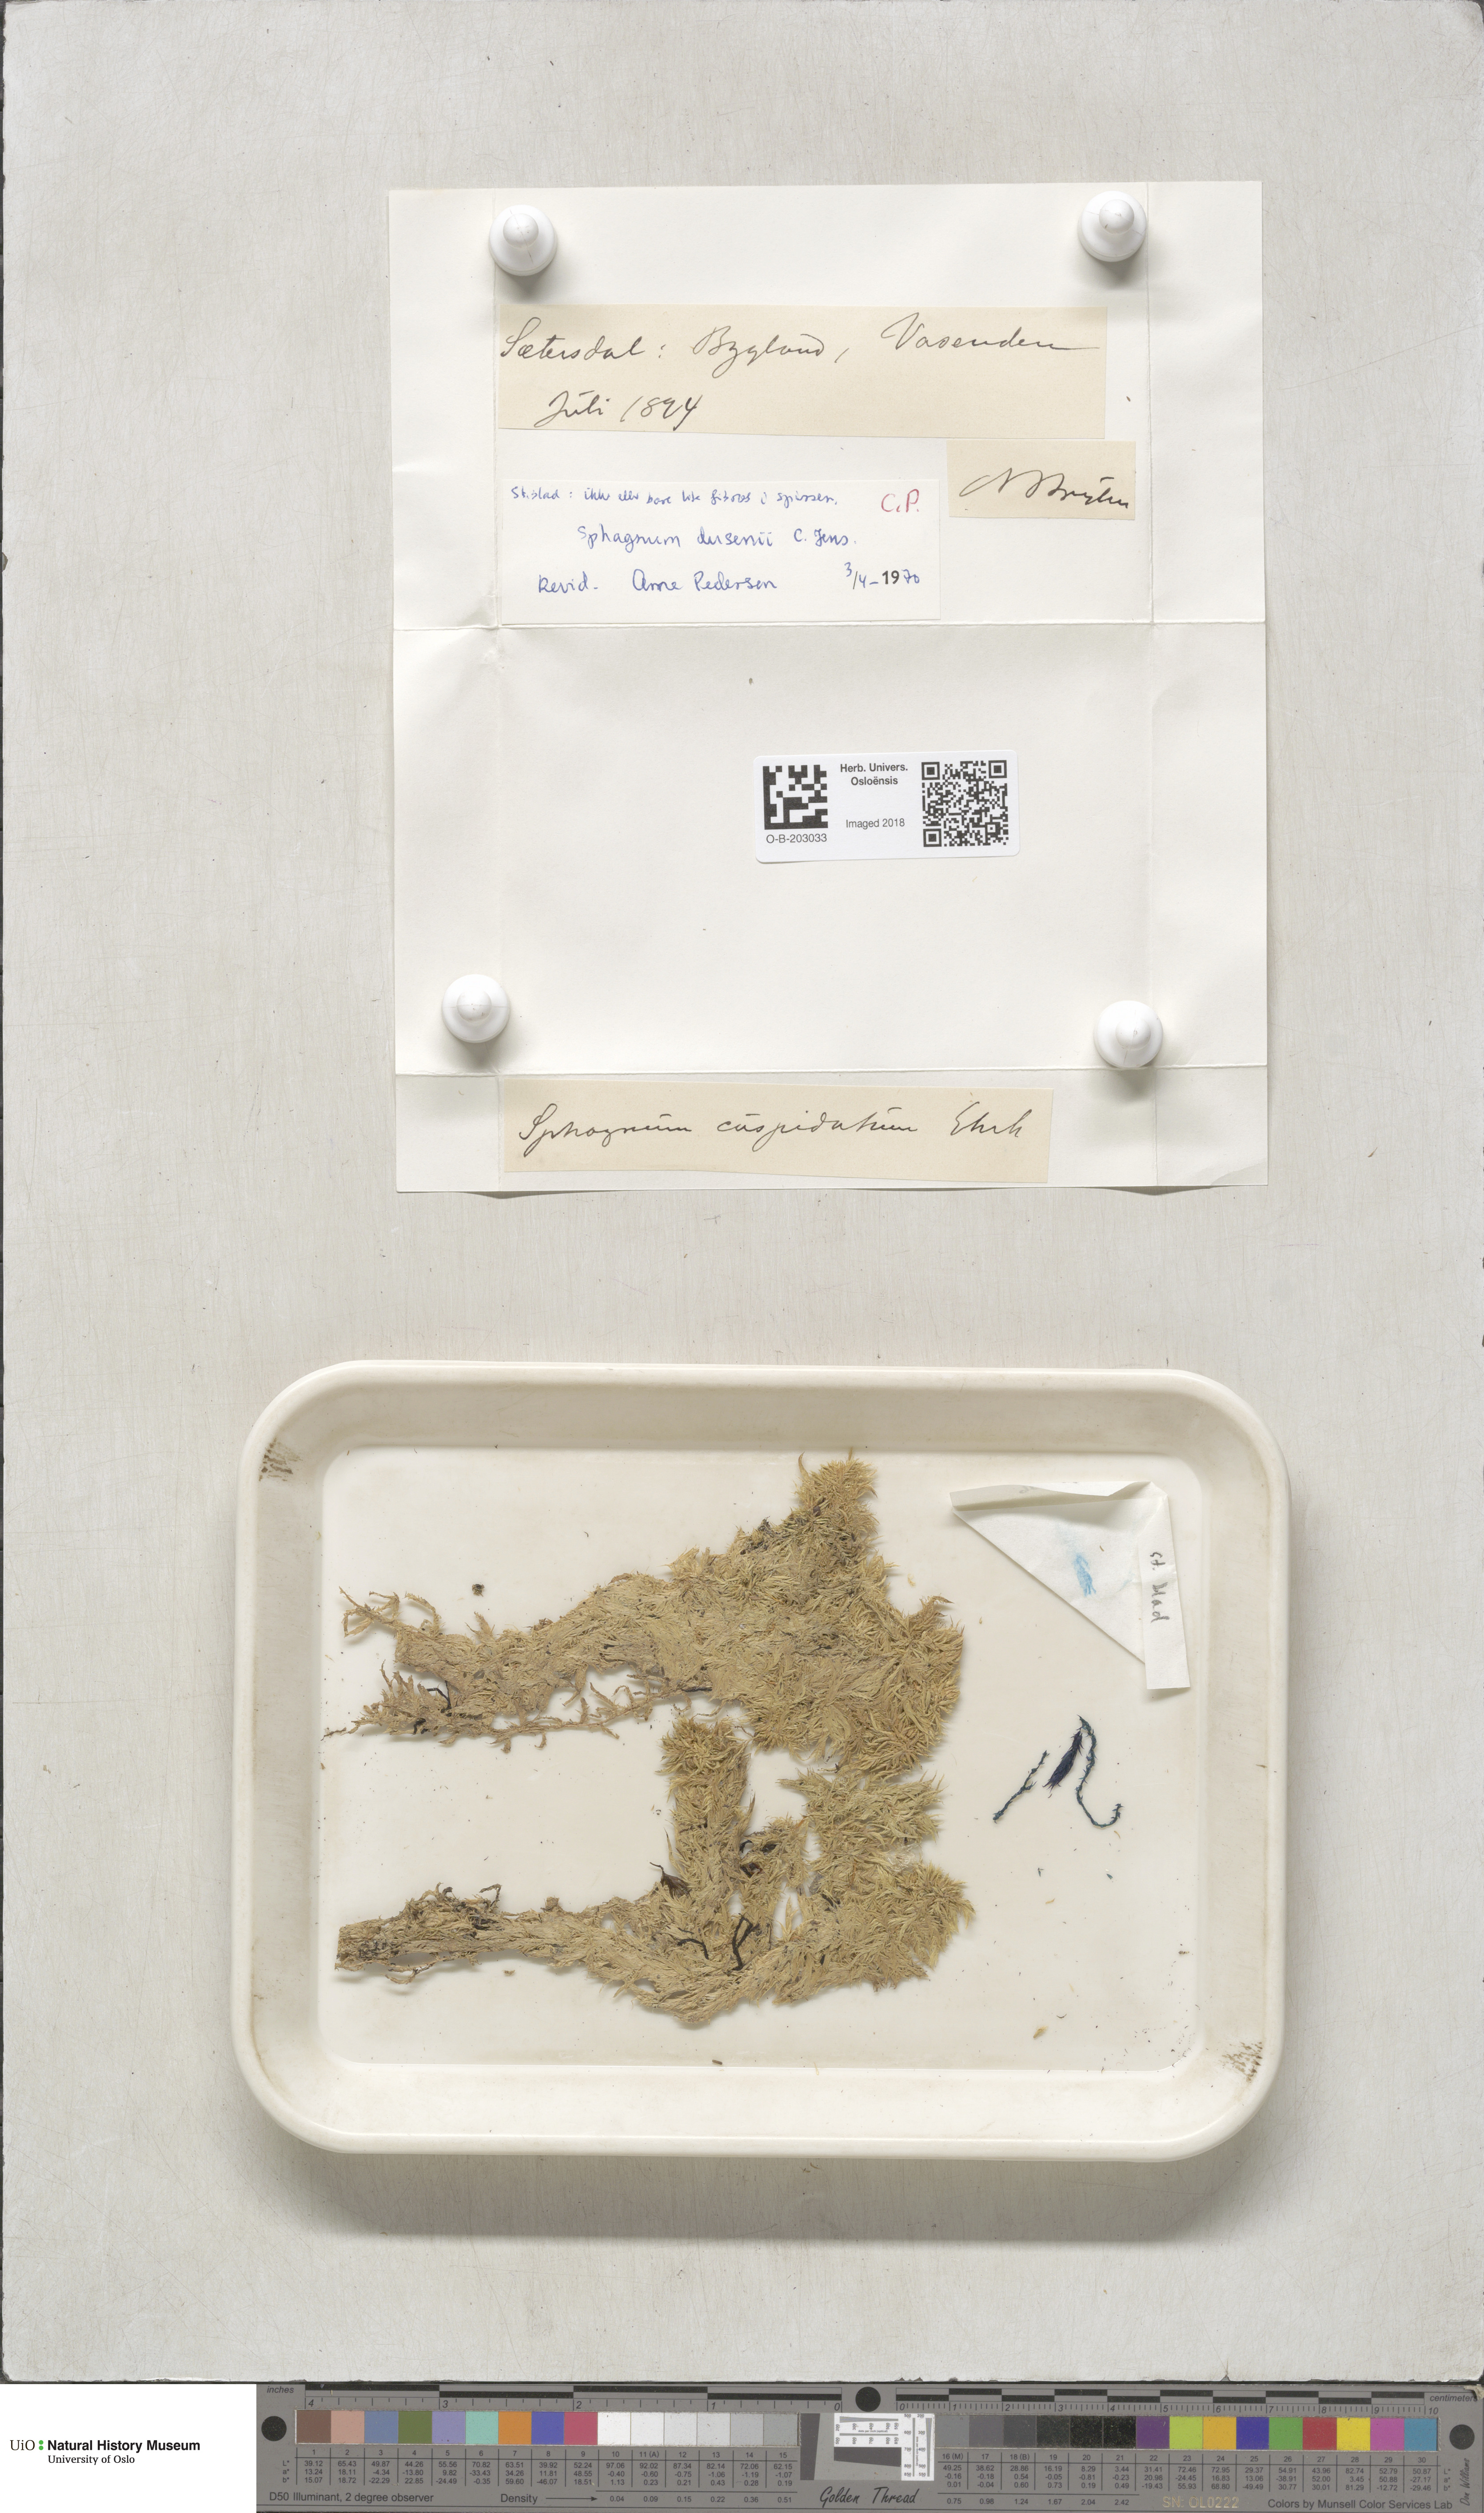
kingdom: Plantae
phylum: Bryophyta
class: Sphagnopsida
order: Sphagnales
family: Sphagnaceae
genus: Sphagnum
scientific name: Sphagnum majus
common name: Olive bog-moss
